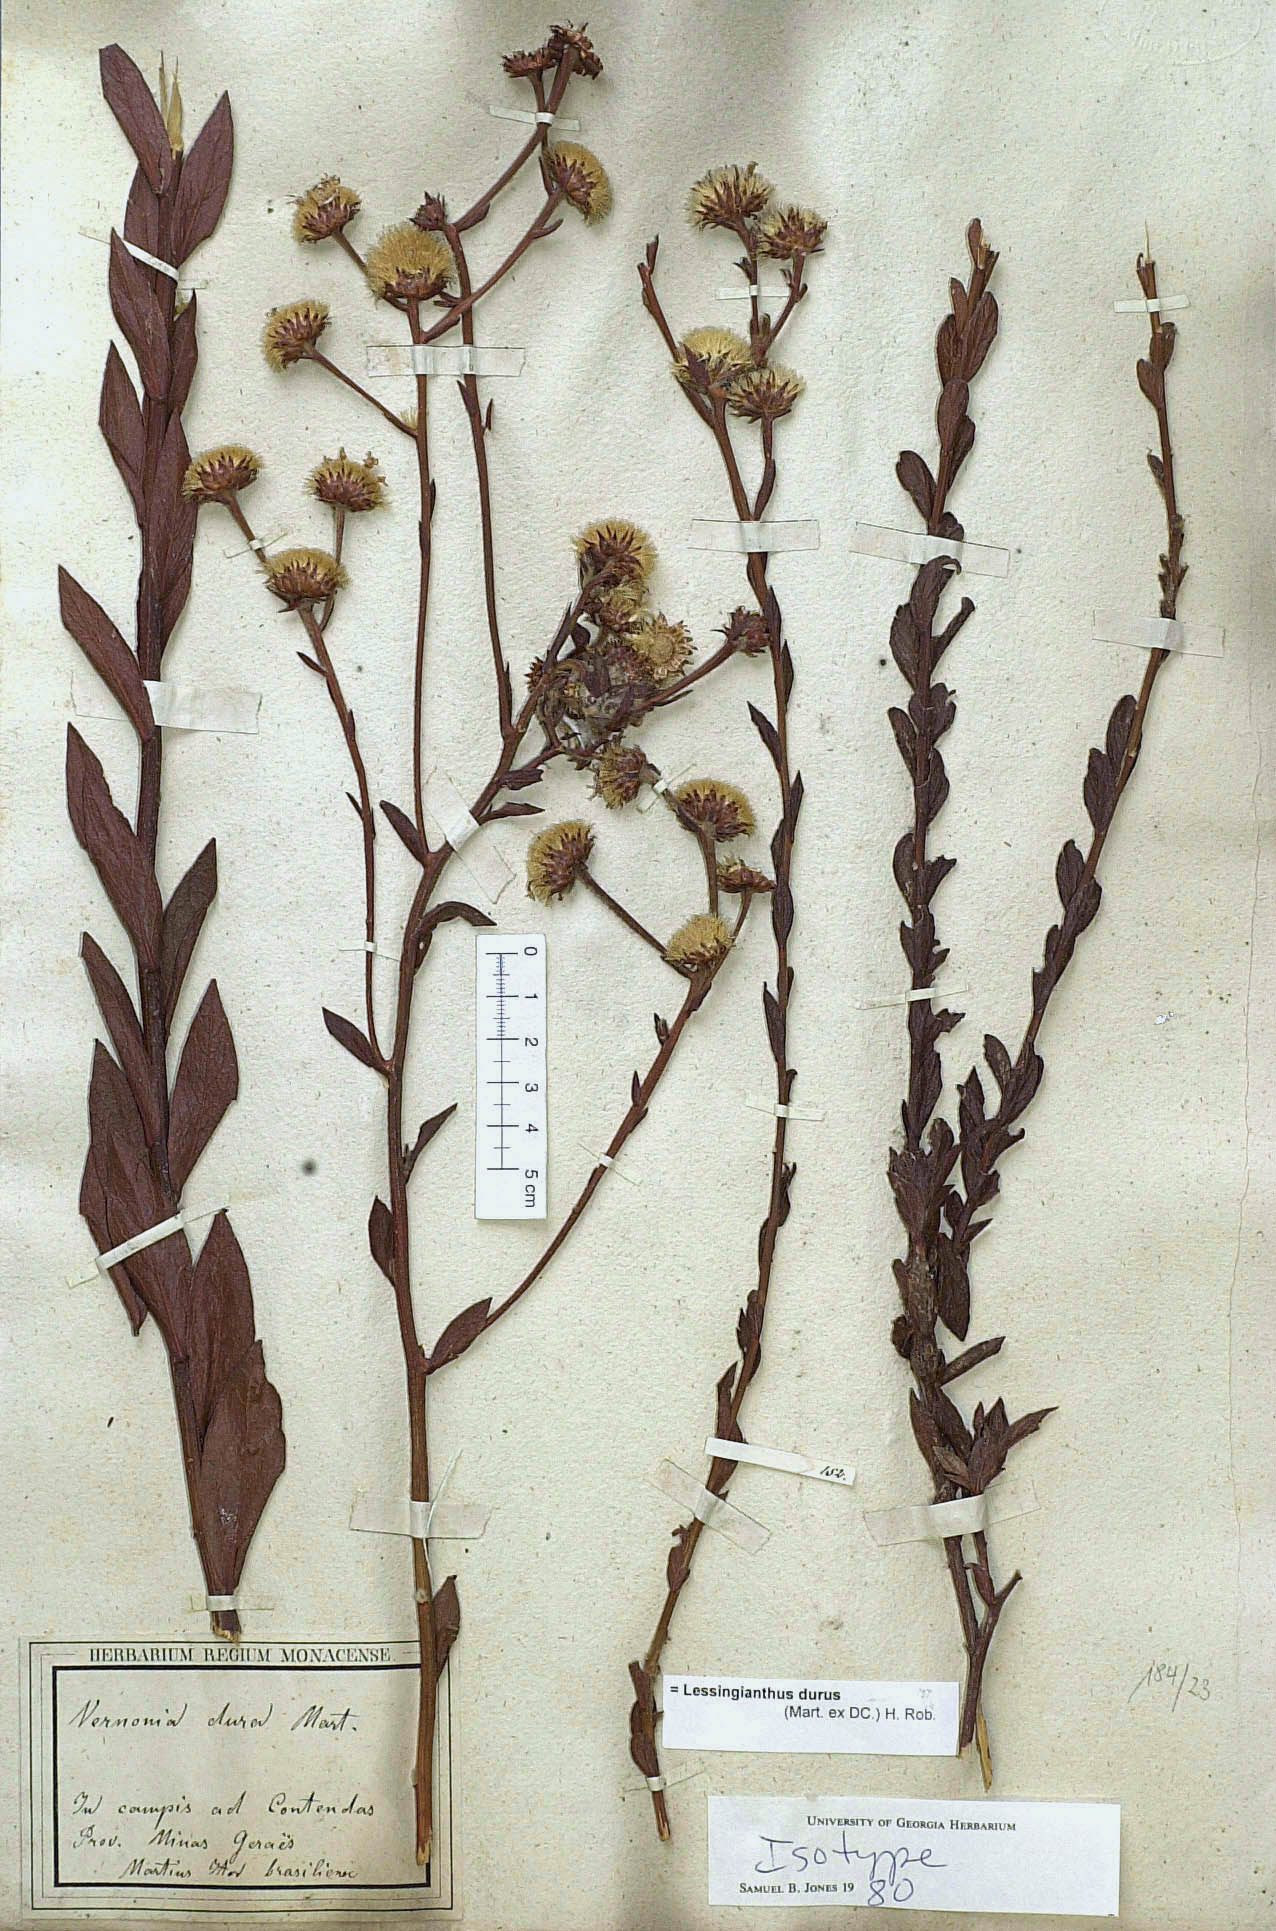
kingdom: Plantae
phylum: Tracheophyta
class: Magnoliopsida
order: Asterales
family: Asteraceae
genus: Lessingianthus
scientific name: Lessingianthus durus
